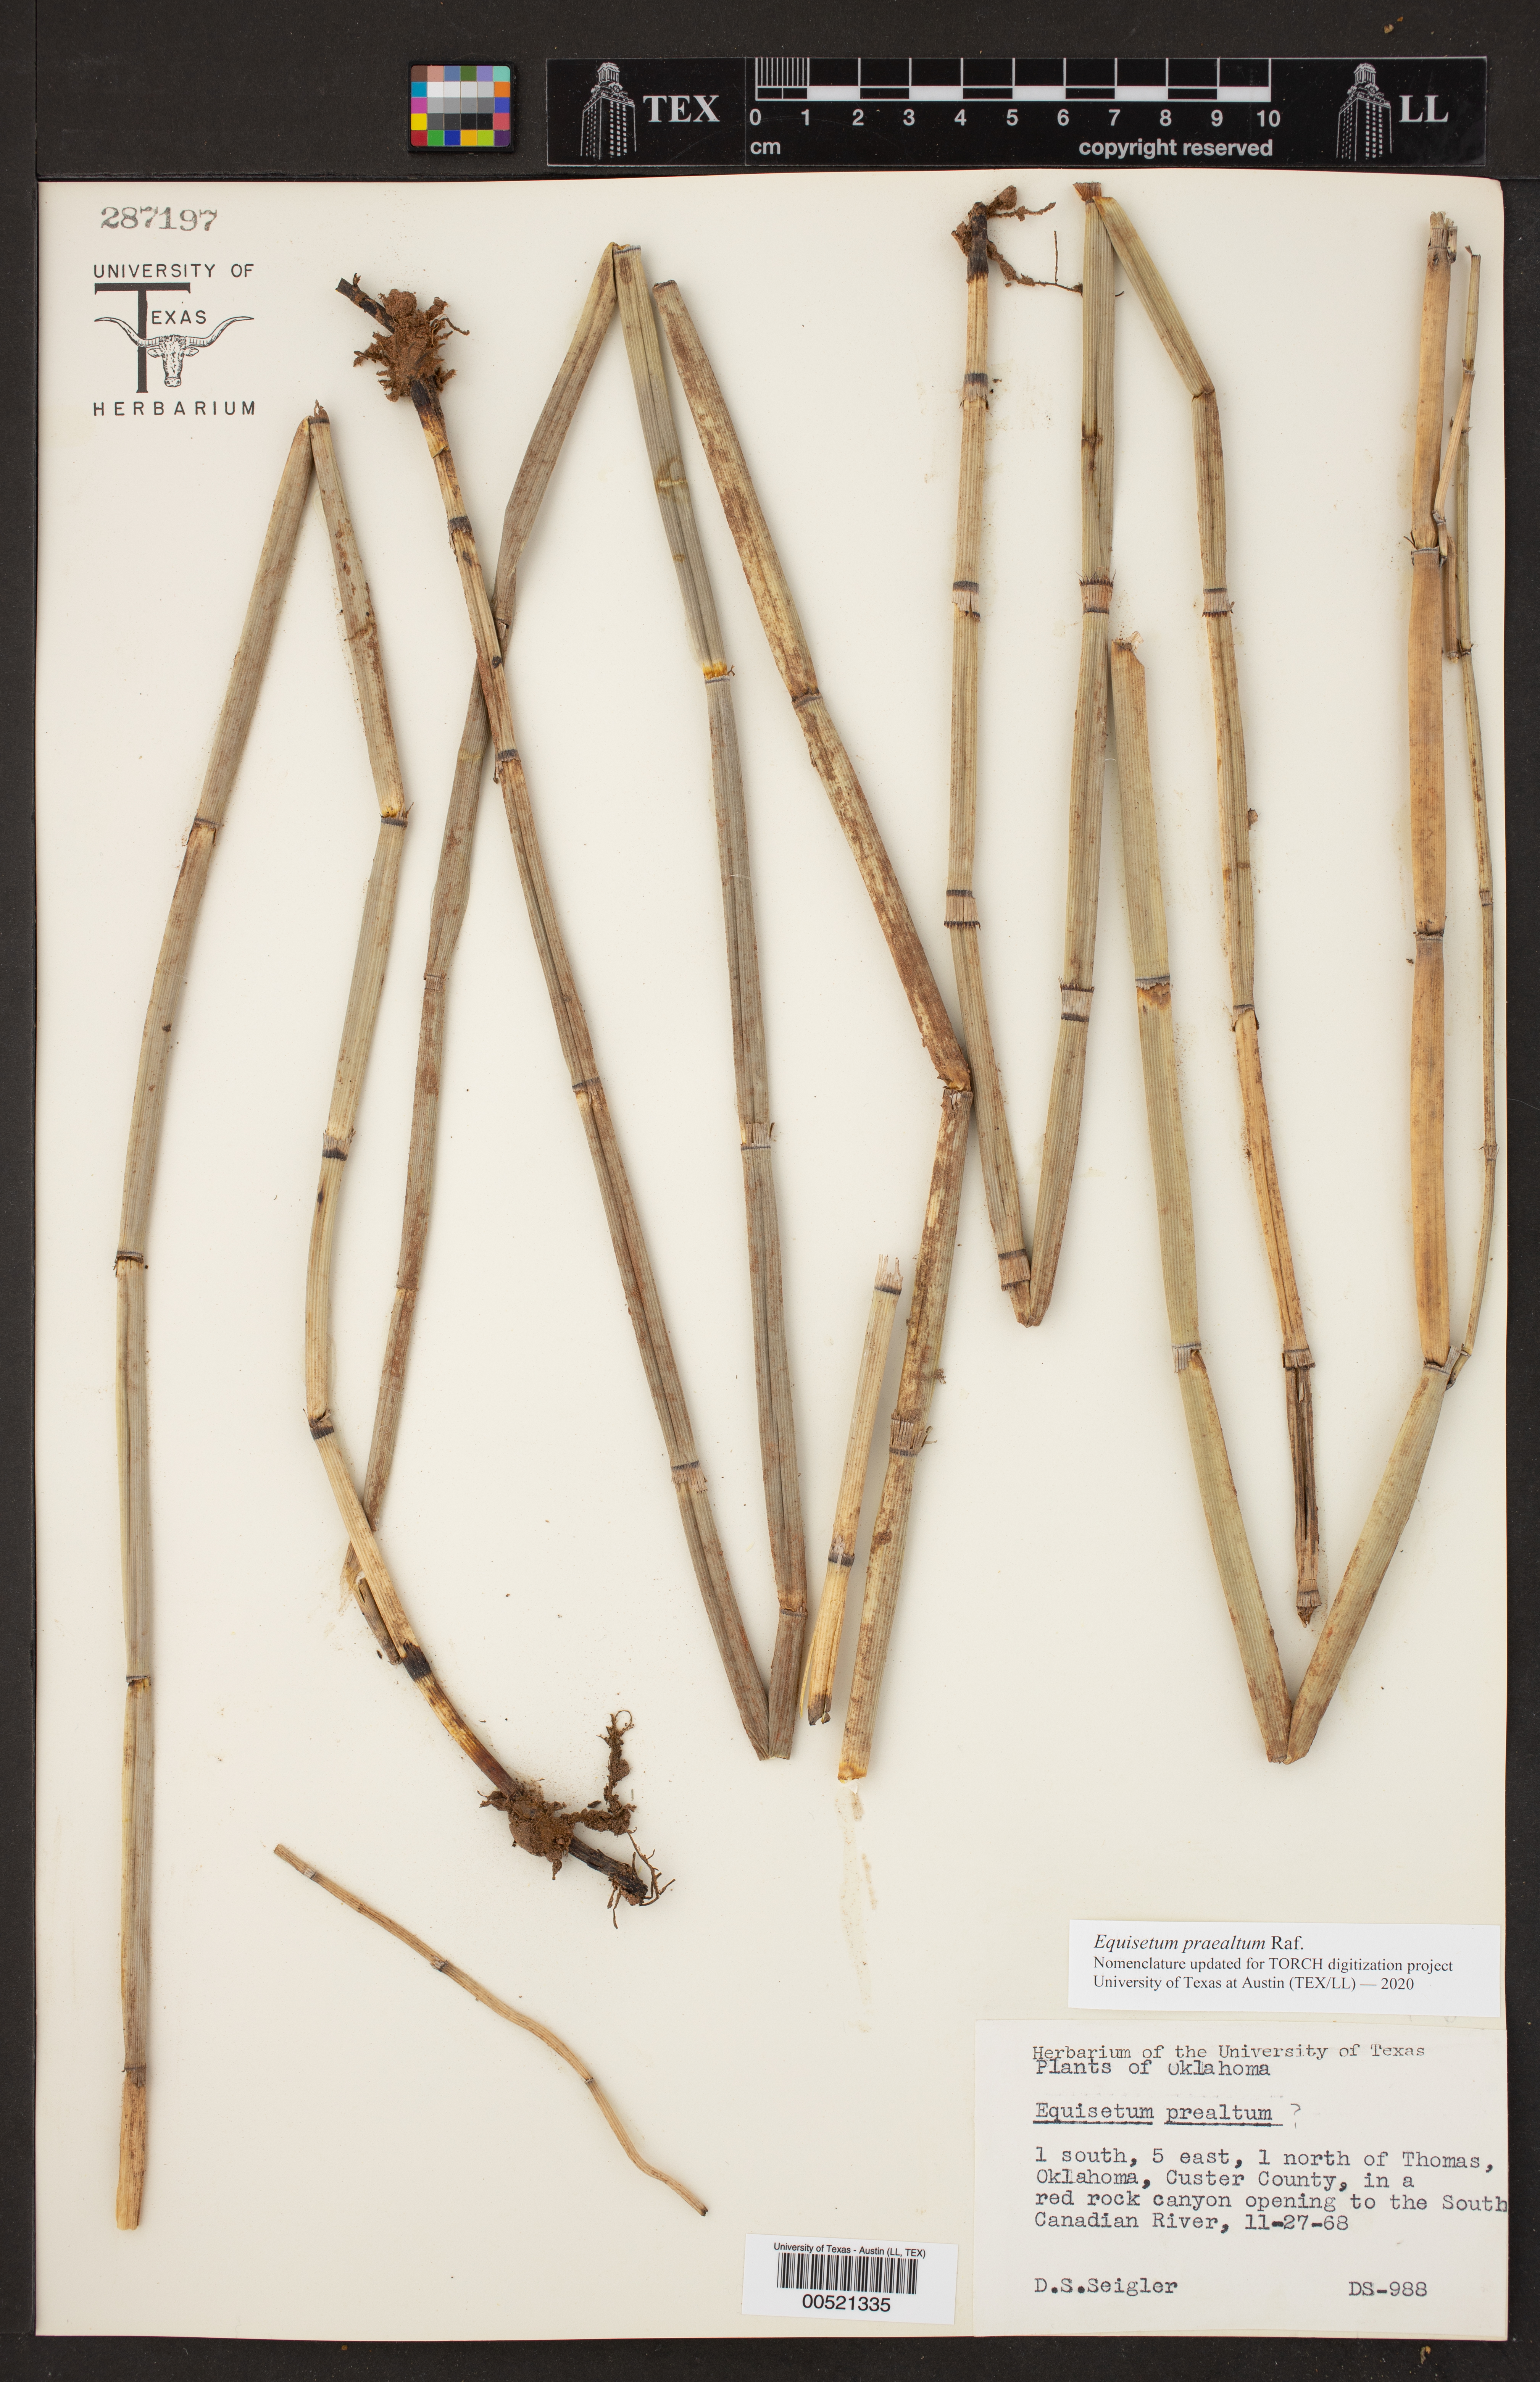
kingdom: Plantae
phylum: Tracheophyta
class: Polypodiopsida
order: Equisetales
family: Equisetaceae
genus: Equisetum
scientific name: Equisetum praealtum
